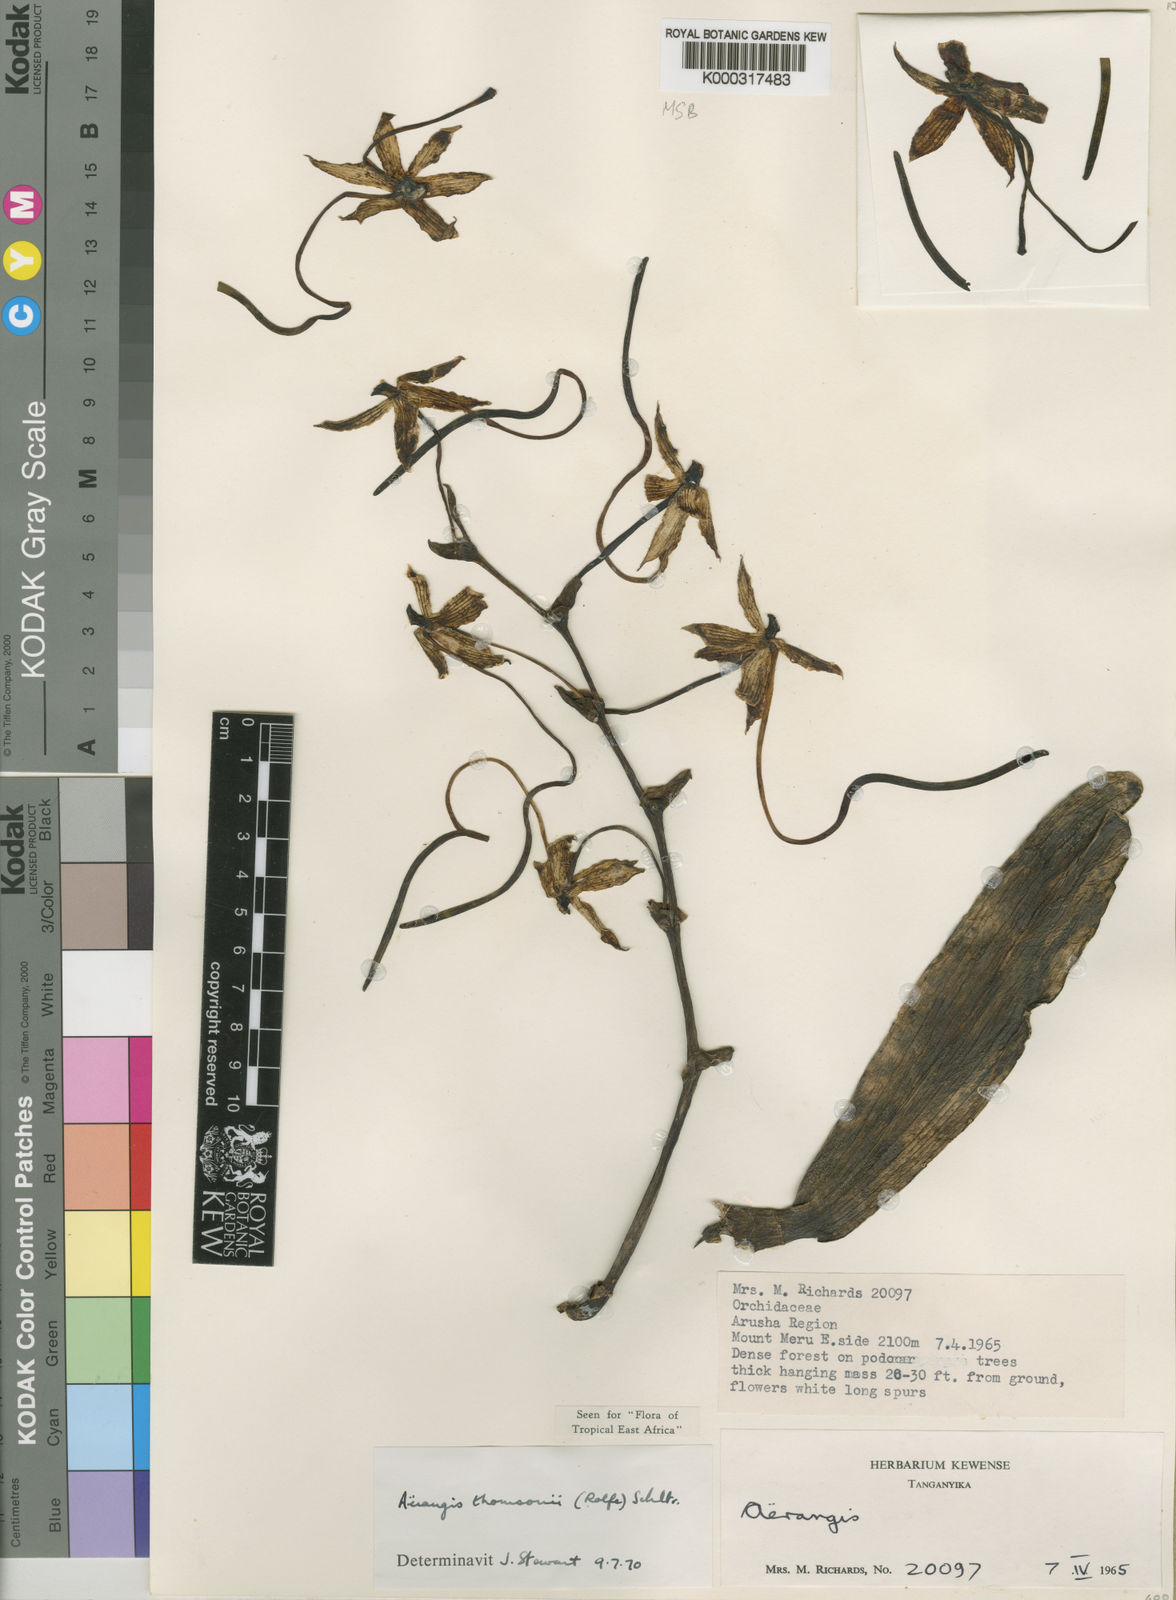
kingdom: Plantae
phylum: Tracheophyta
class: Liliopsida
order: Asparagales
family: Orchidaceae
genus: Aerangis
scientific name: Aerangis thomsonii
